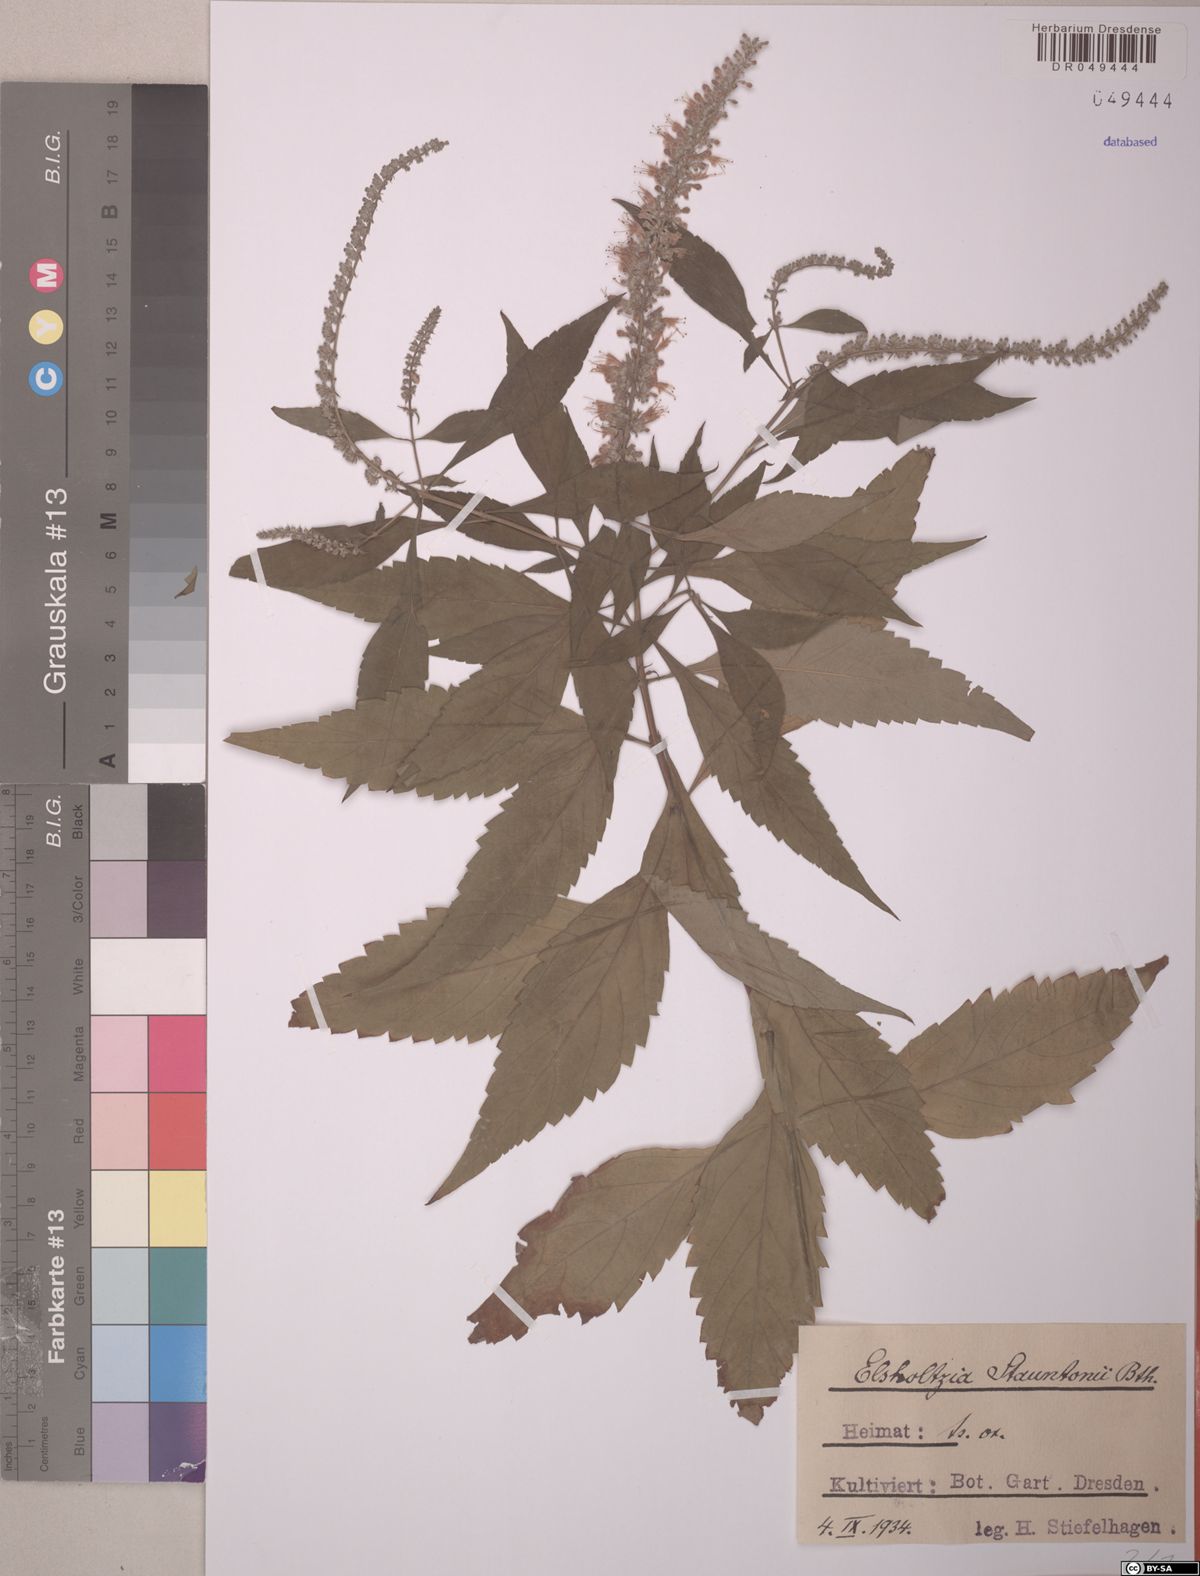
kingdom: Plantae
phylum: Tracheophyta
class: Magnoliopsida
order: Lamiales
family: Lamiaceae
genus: Elsholtzia
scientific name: Elsholtzia stauntonii
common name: Mintbush
